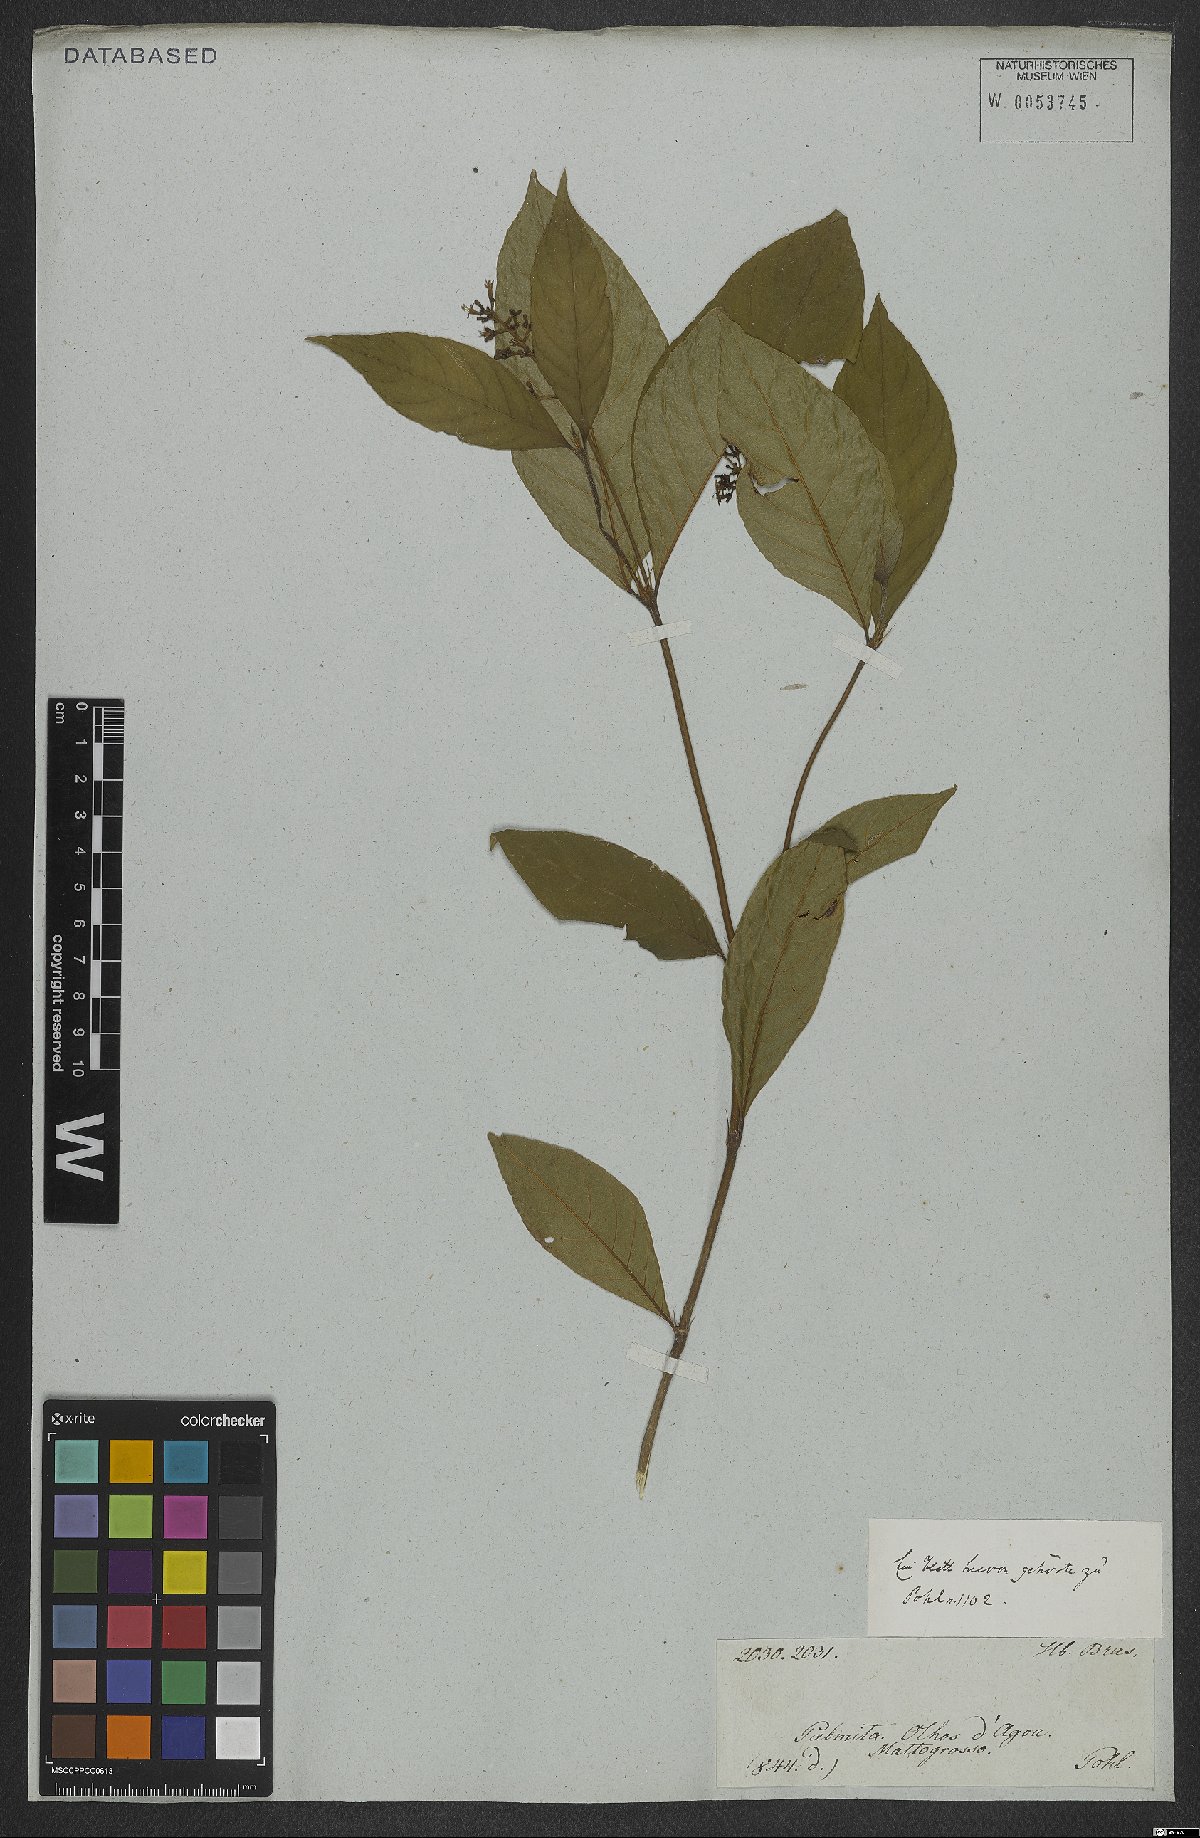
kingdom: Plantae
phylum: Tracheophyta
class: Magnoliopsida
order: Gentianales
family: Rubiaceae
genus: Palicourea
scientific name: Palicourea crocea
